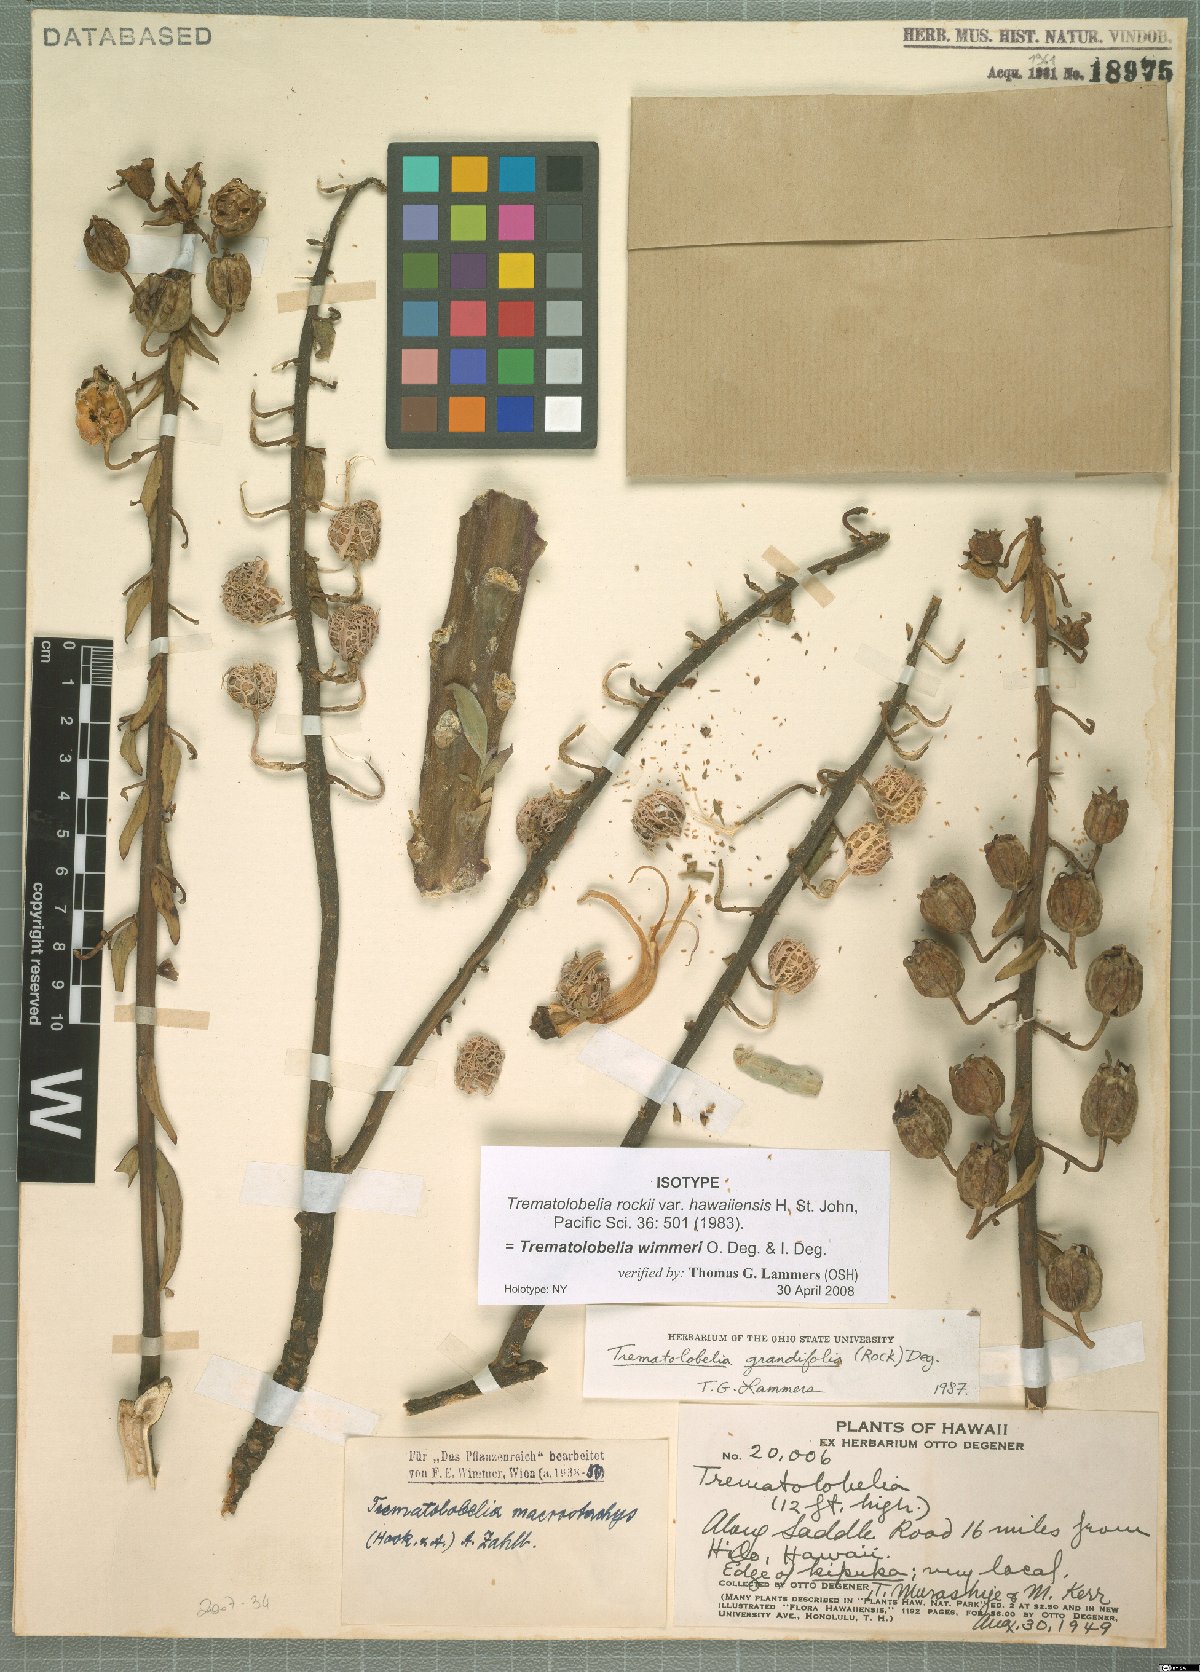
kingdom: Plantae
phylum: Tracheophyta
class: Magnoliopsida
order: Asterales
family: Campanulaceae
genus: Trematolobelia
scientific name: Trematolobelia wimmeri
